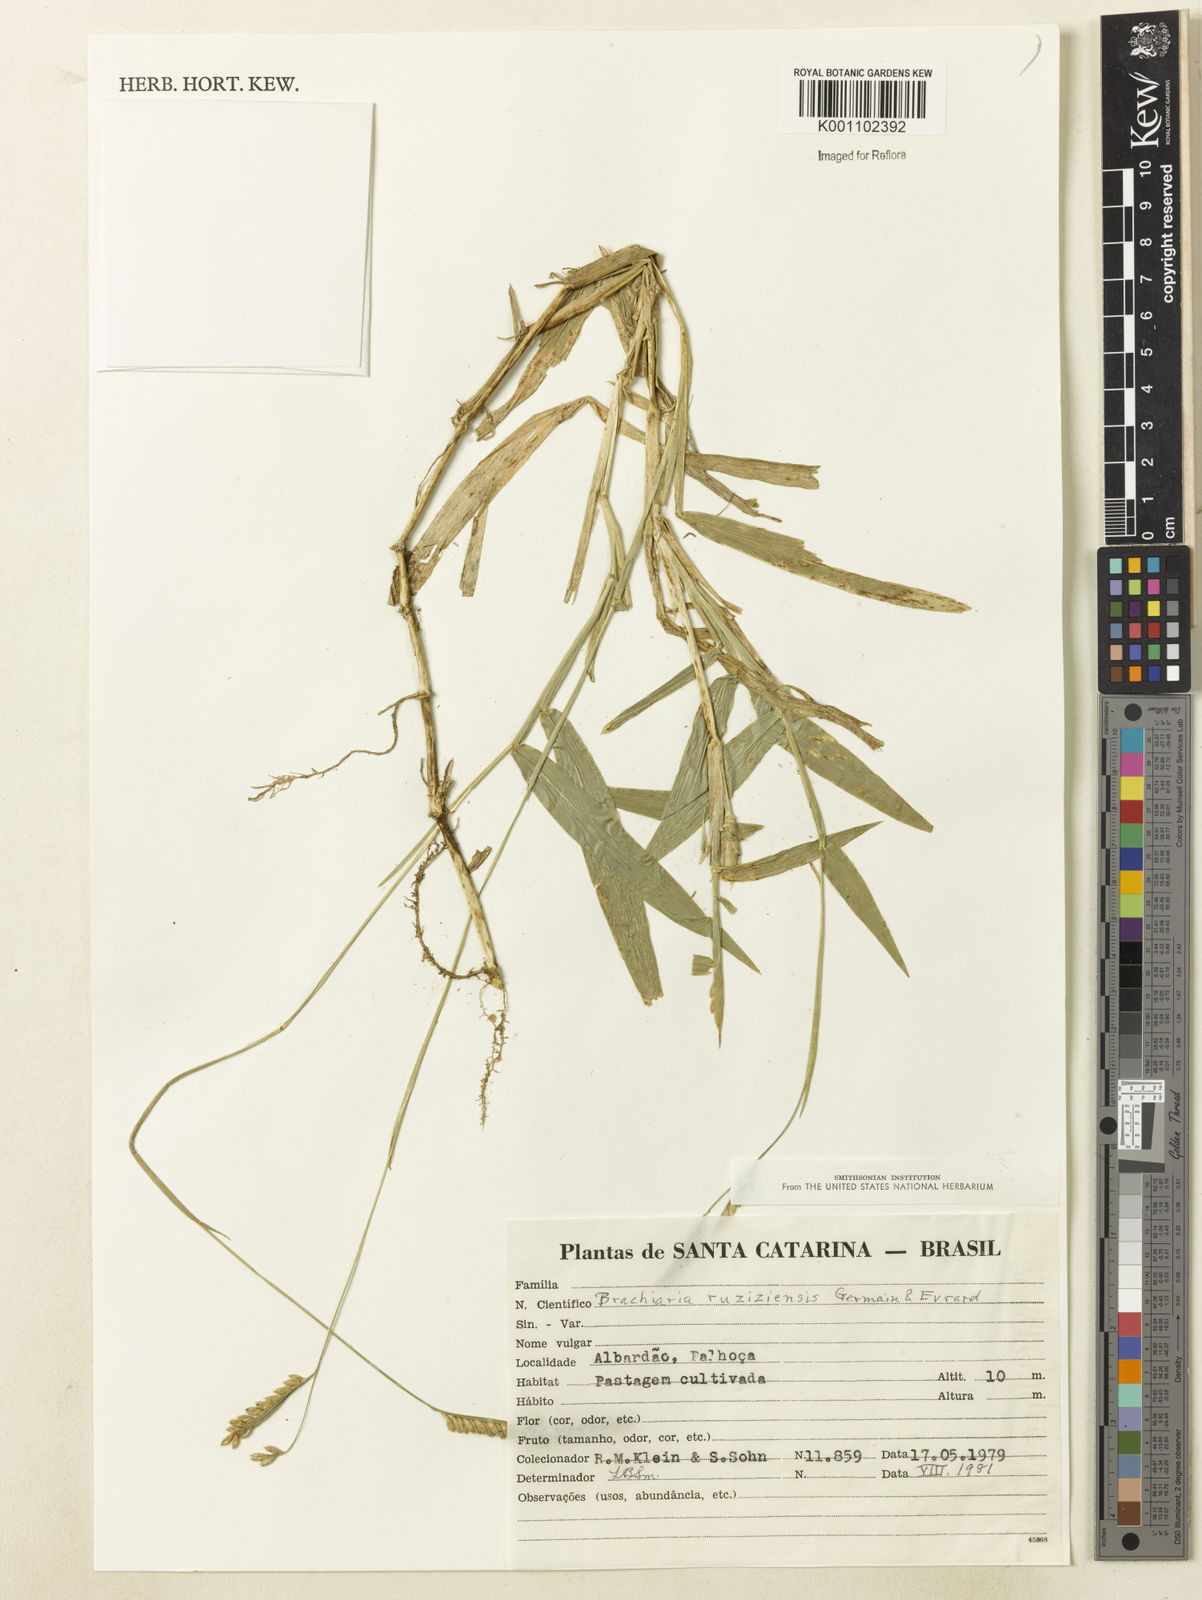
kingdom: Plantae
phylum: Tracheophyta
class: Liliopsida
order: Poales
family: Poaceae
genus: Urochloa
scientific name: Urochloa eminii
